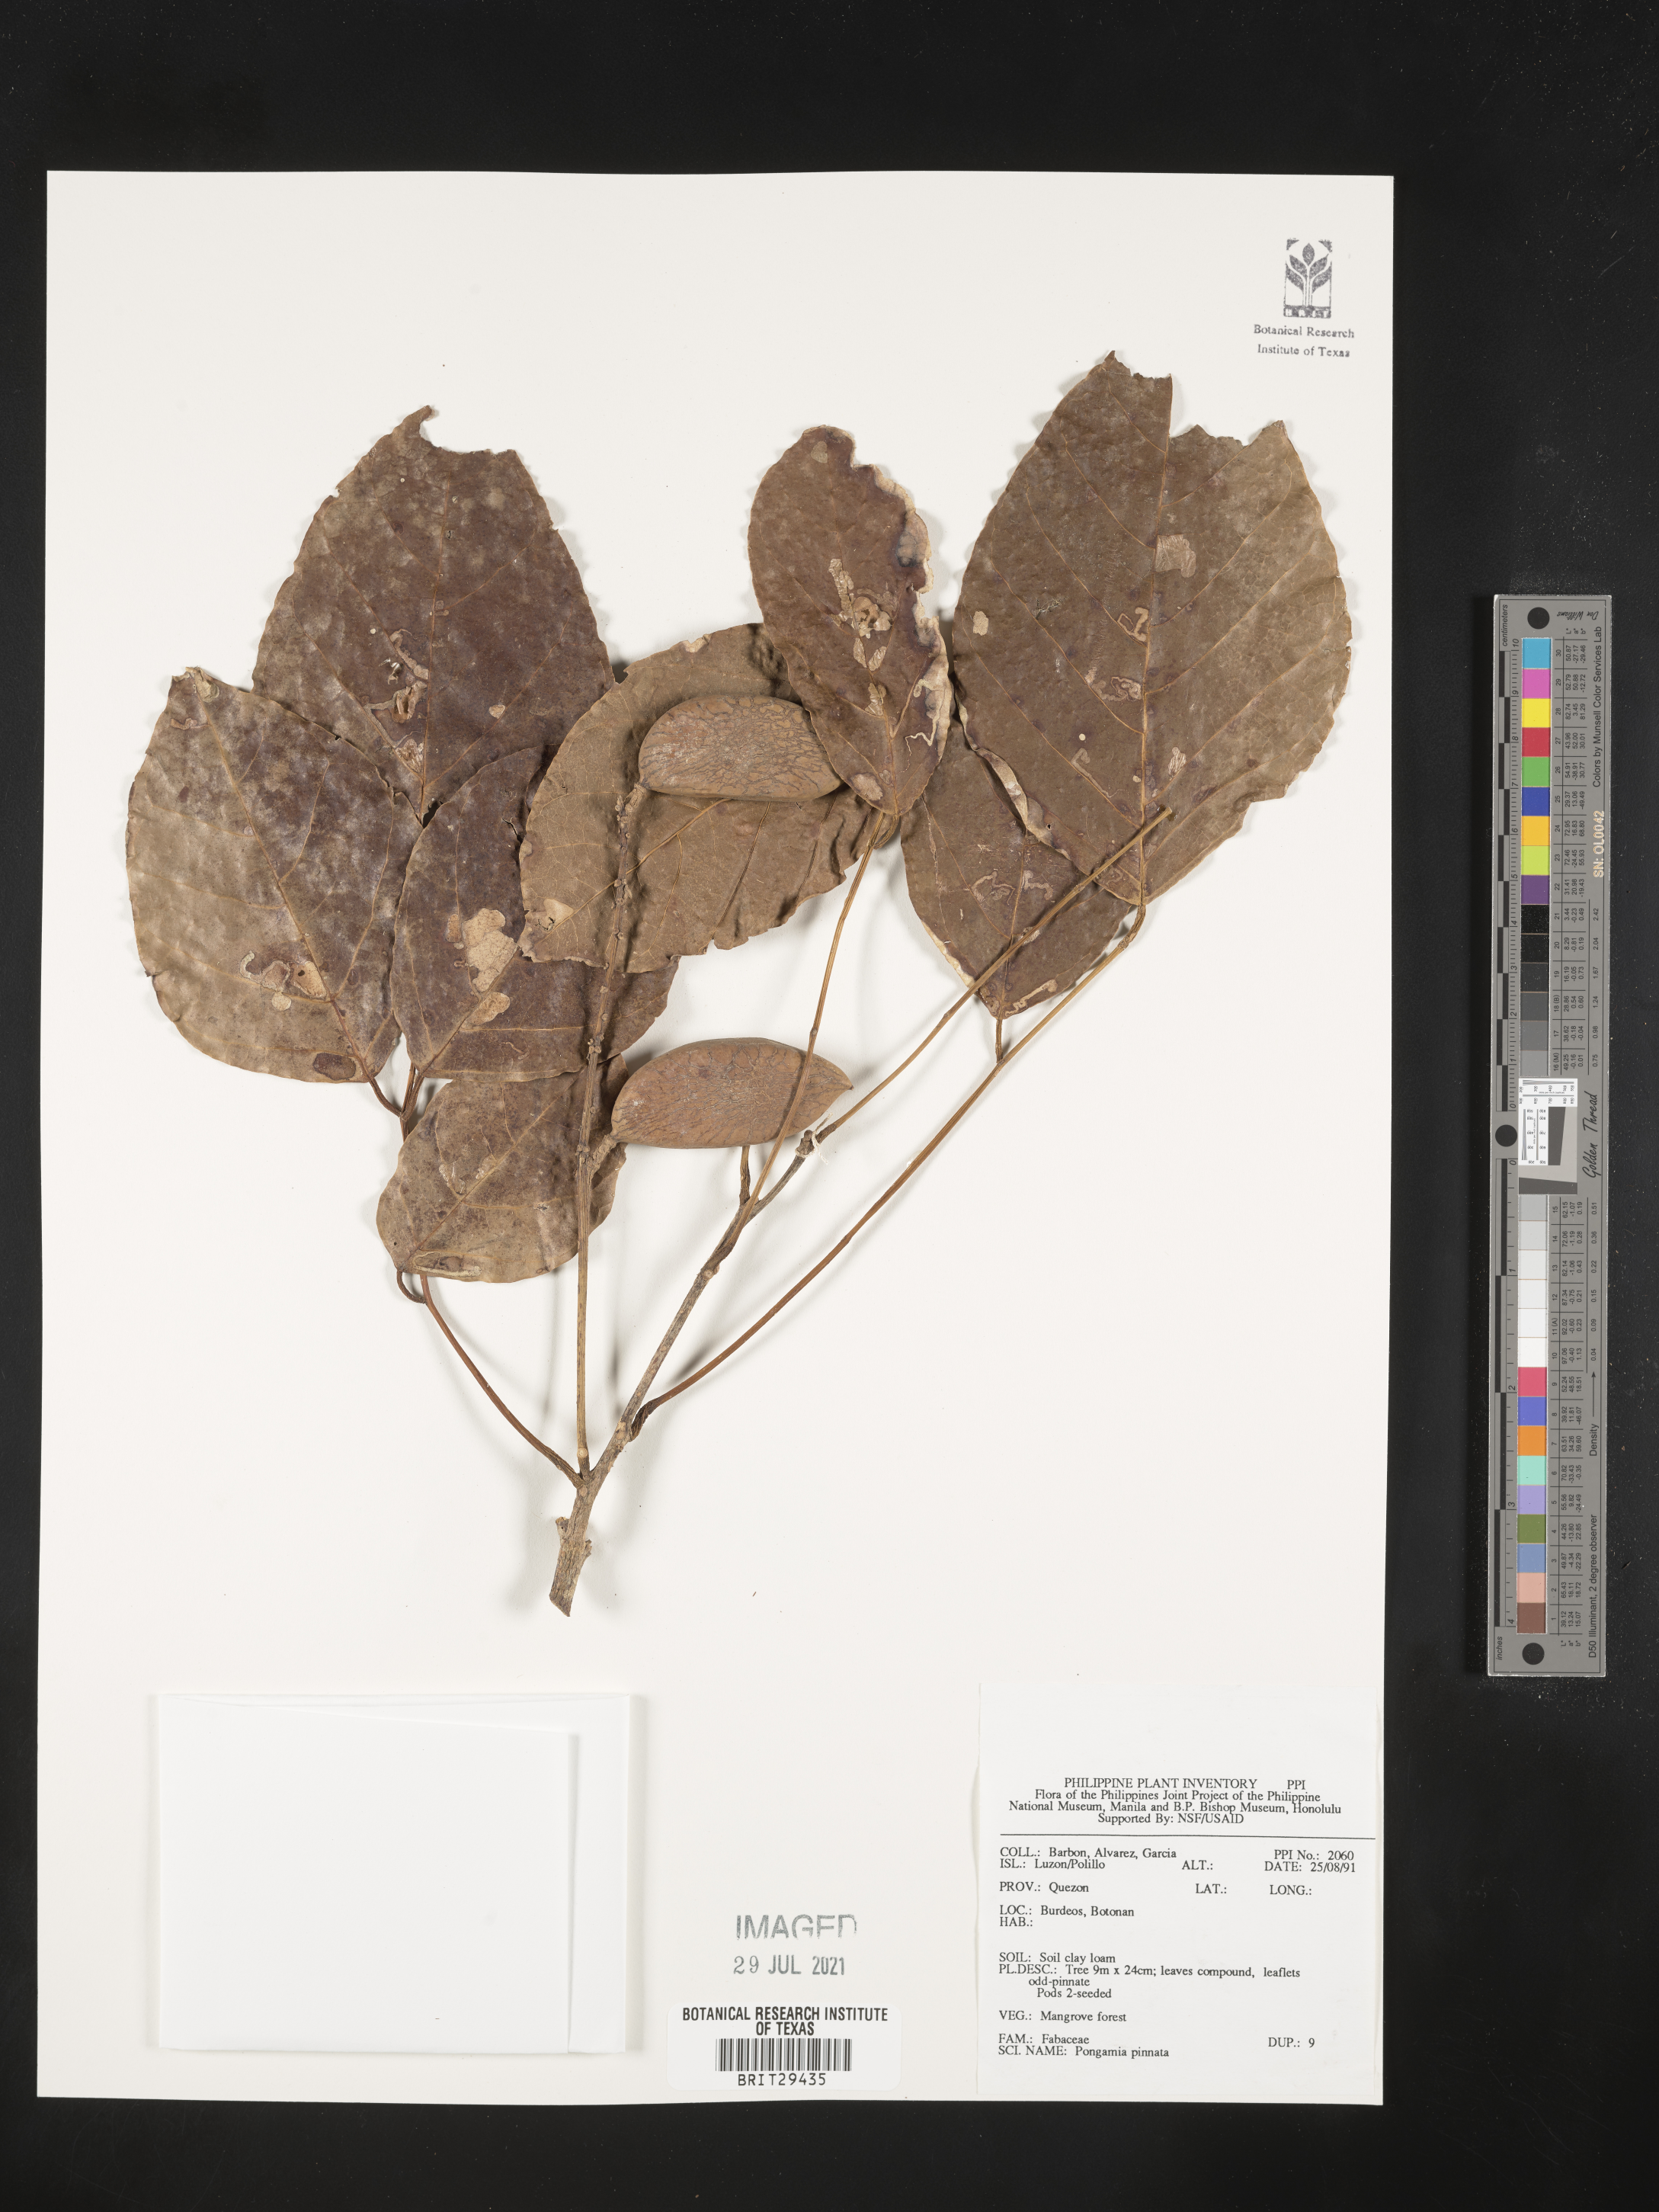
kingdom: Plantae
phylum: Tracheophyta
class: Magnoliopsida
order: Fabales
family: Fabaceae
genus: Pongamia
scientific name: Pongamia pinnata
